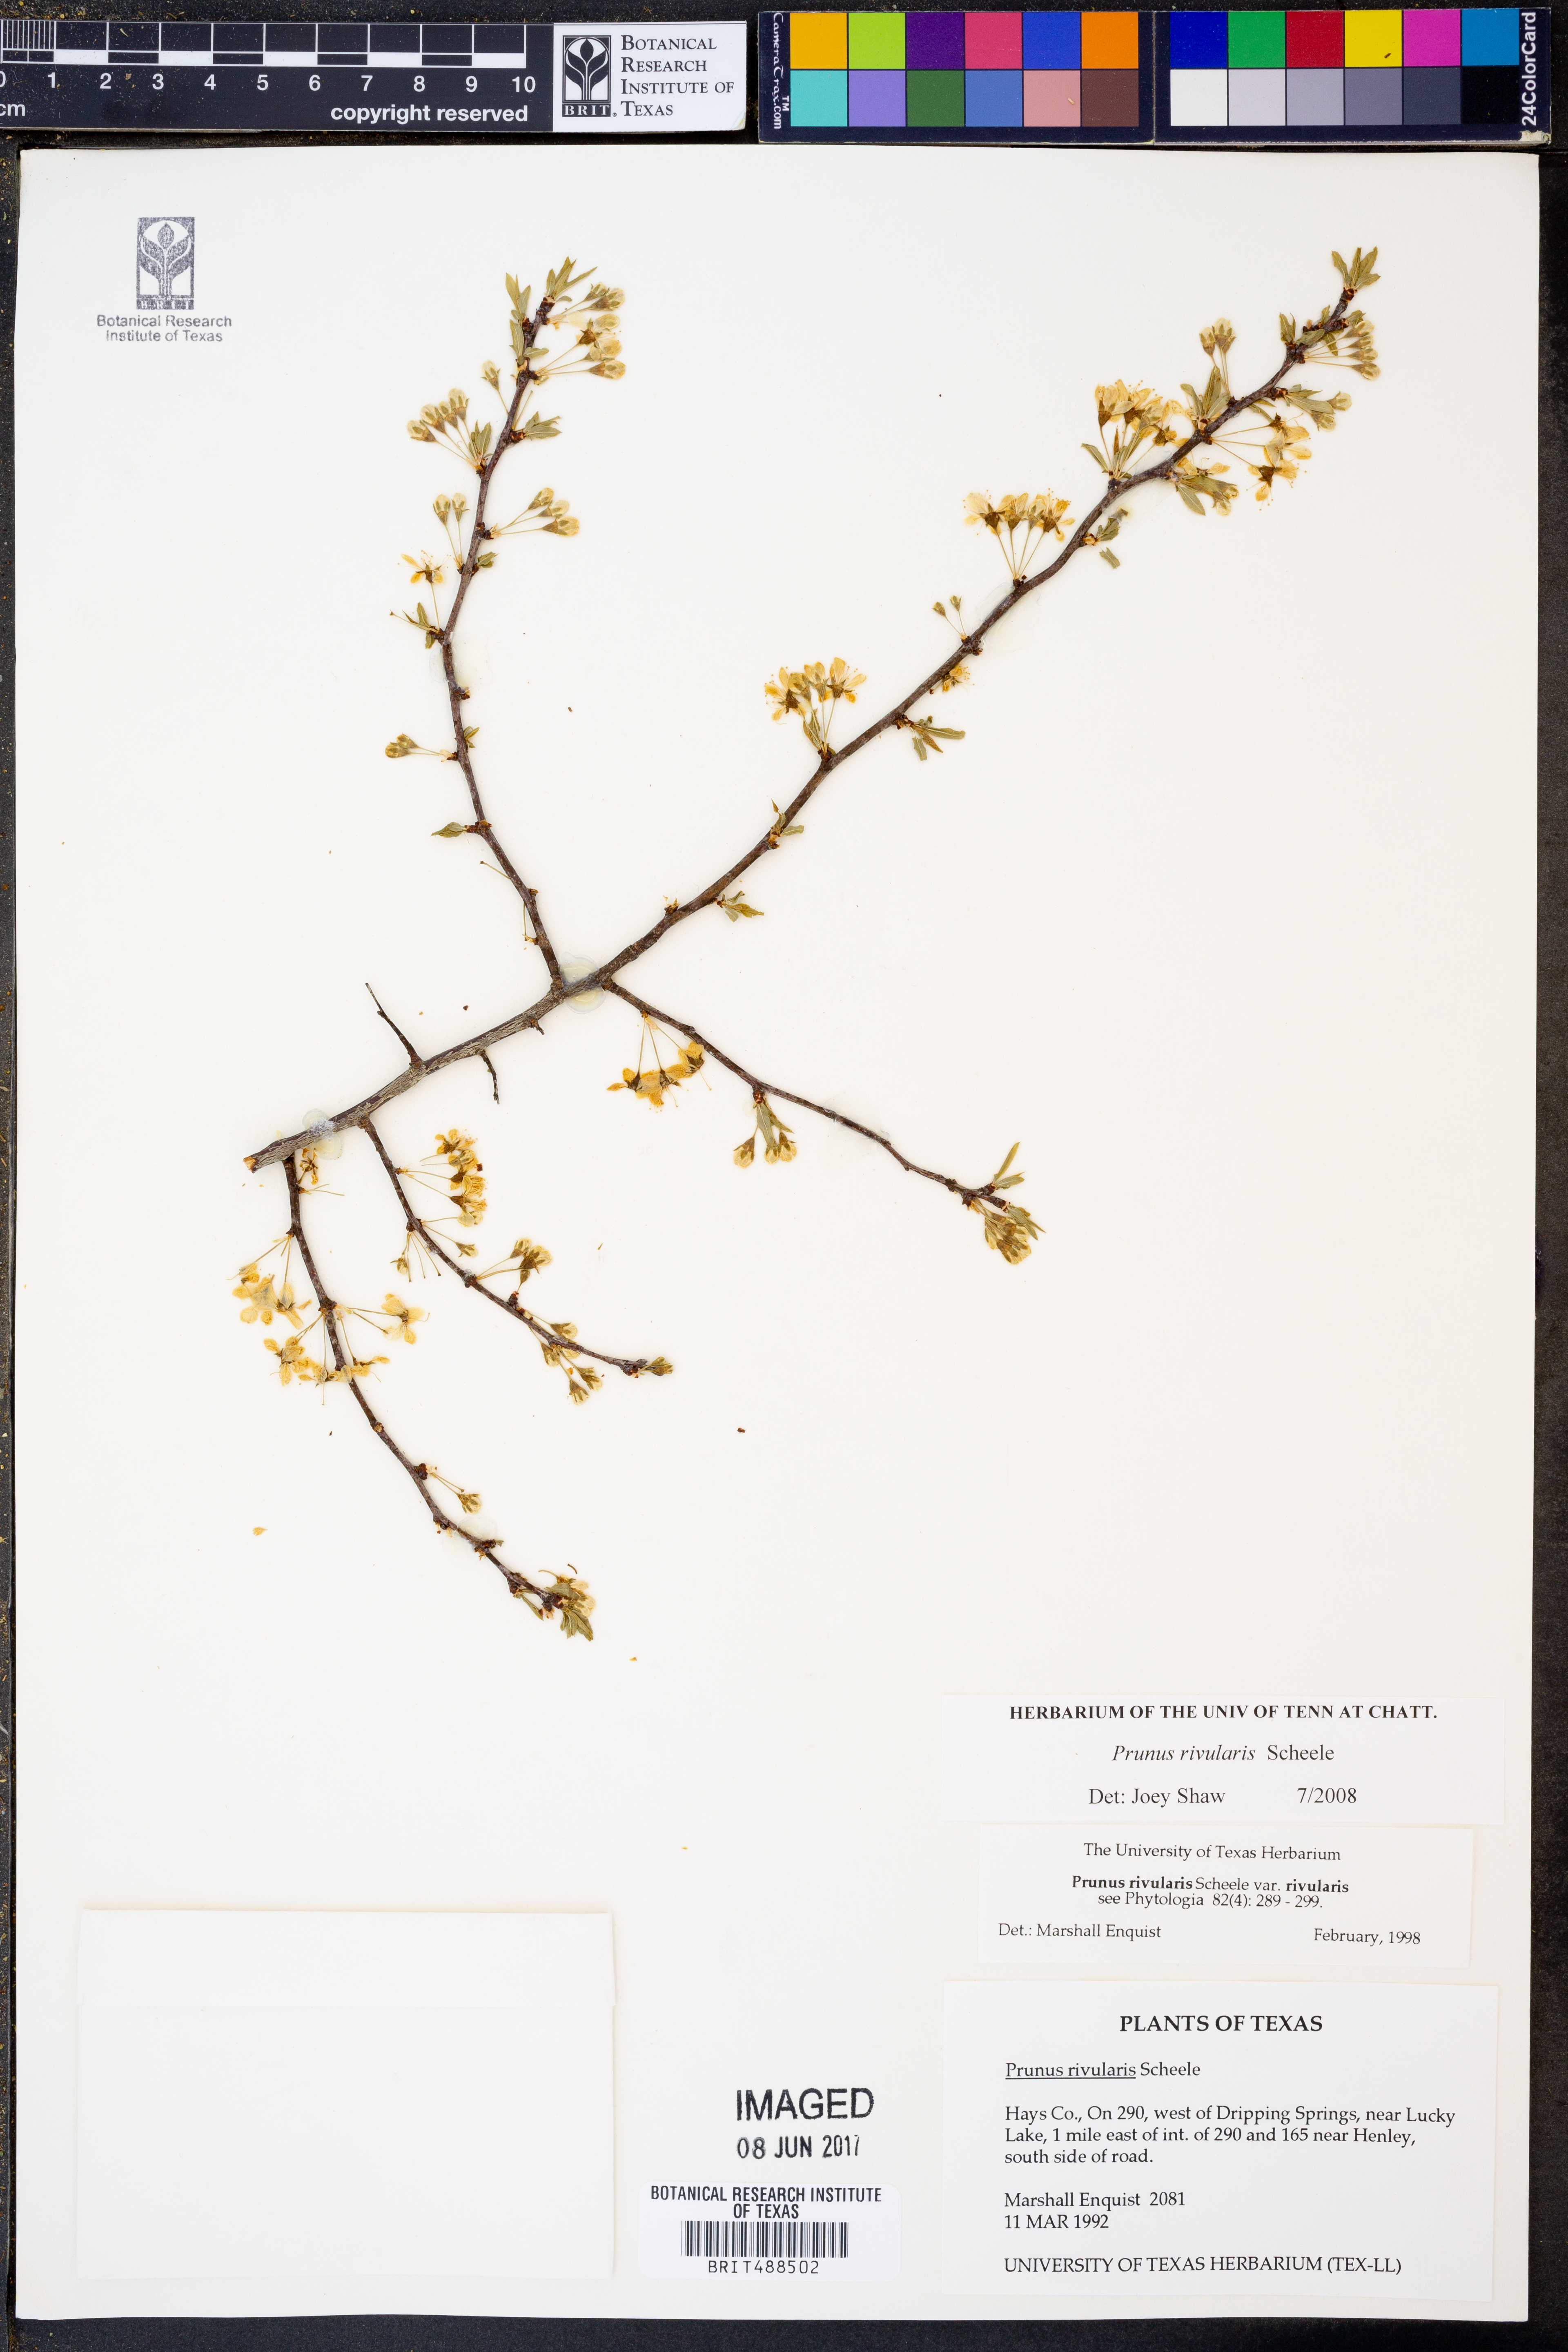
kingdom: Plantae
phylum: Tracheophyta
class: Magnoliopsida
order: Rosales
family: Rosaceae
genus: Prunus
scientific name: Prunus rivularis
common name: Creek plum
